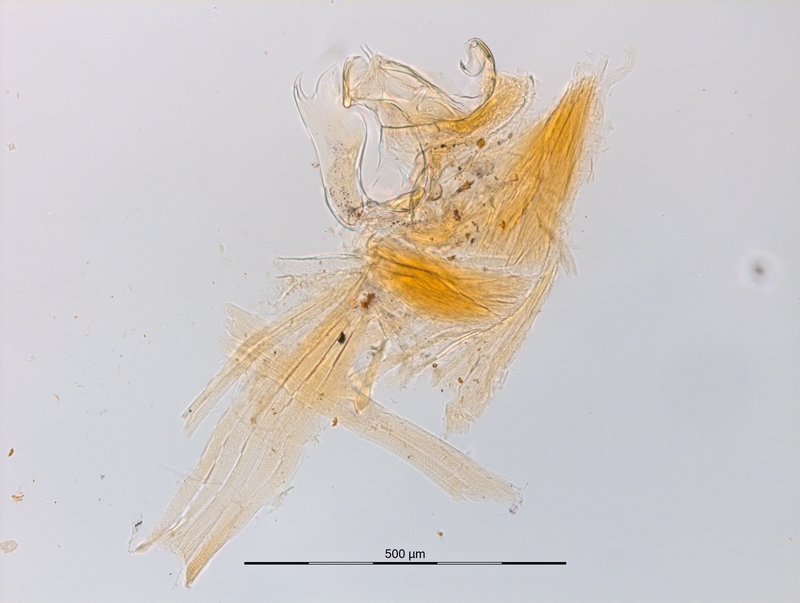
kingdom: Animalia
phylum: Arthropoda
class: Diplopoda
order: Chordeumatida
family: Craspedosomatidae
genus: Ochogona
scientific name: Ochogona caroli
